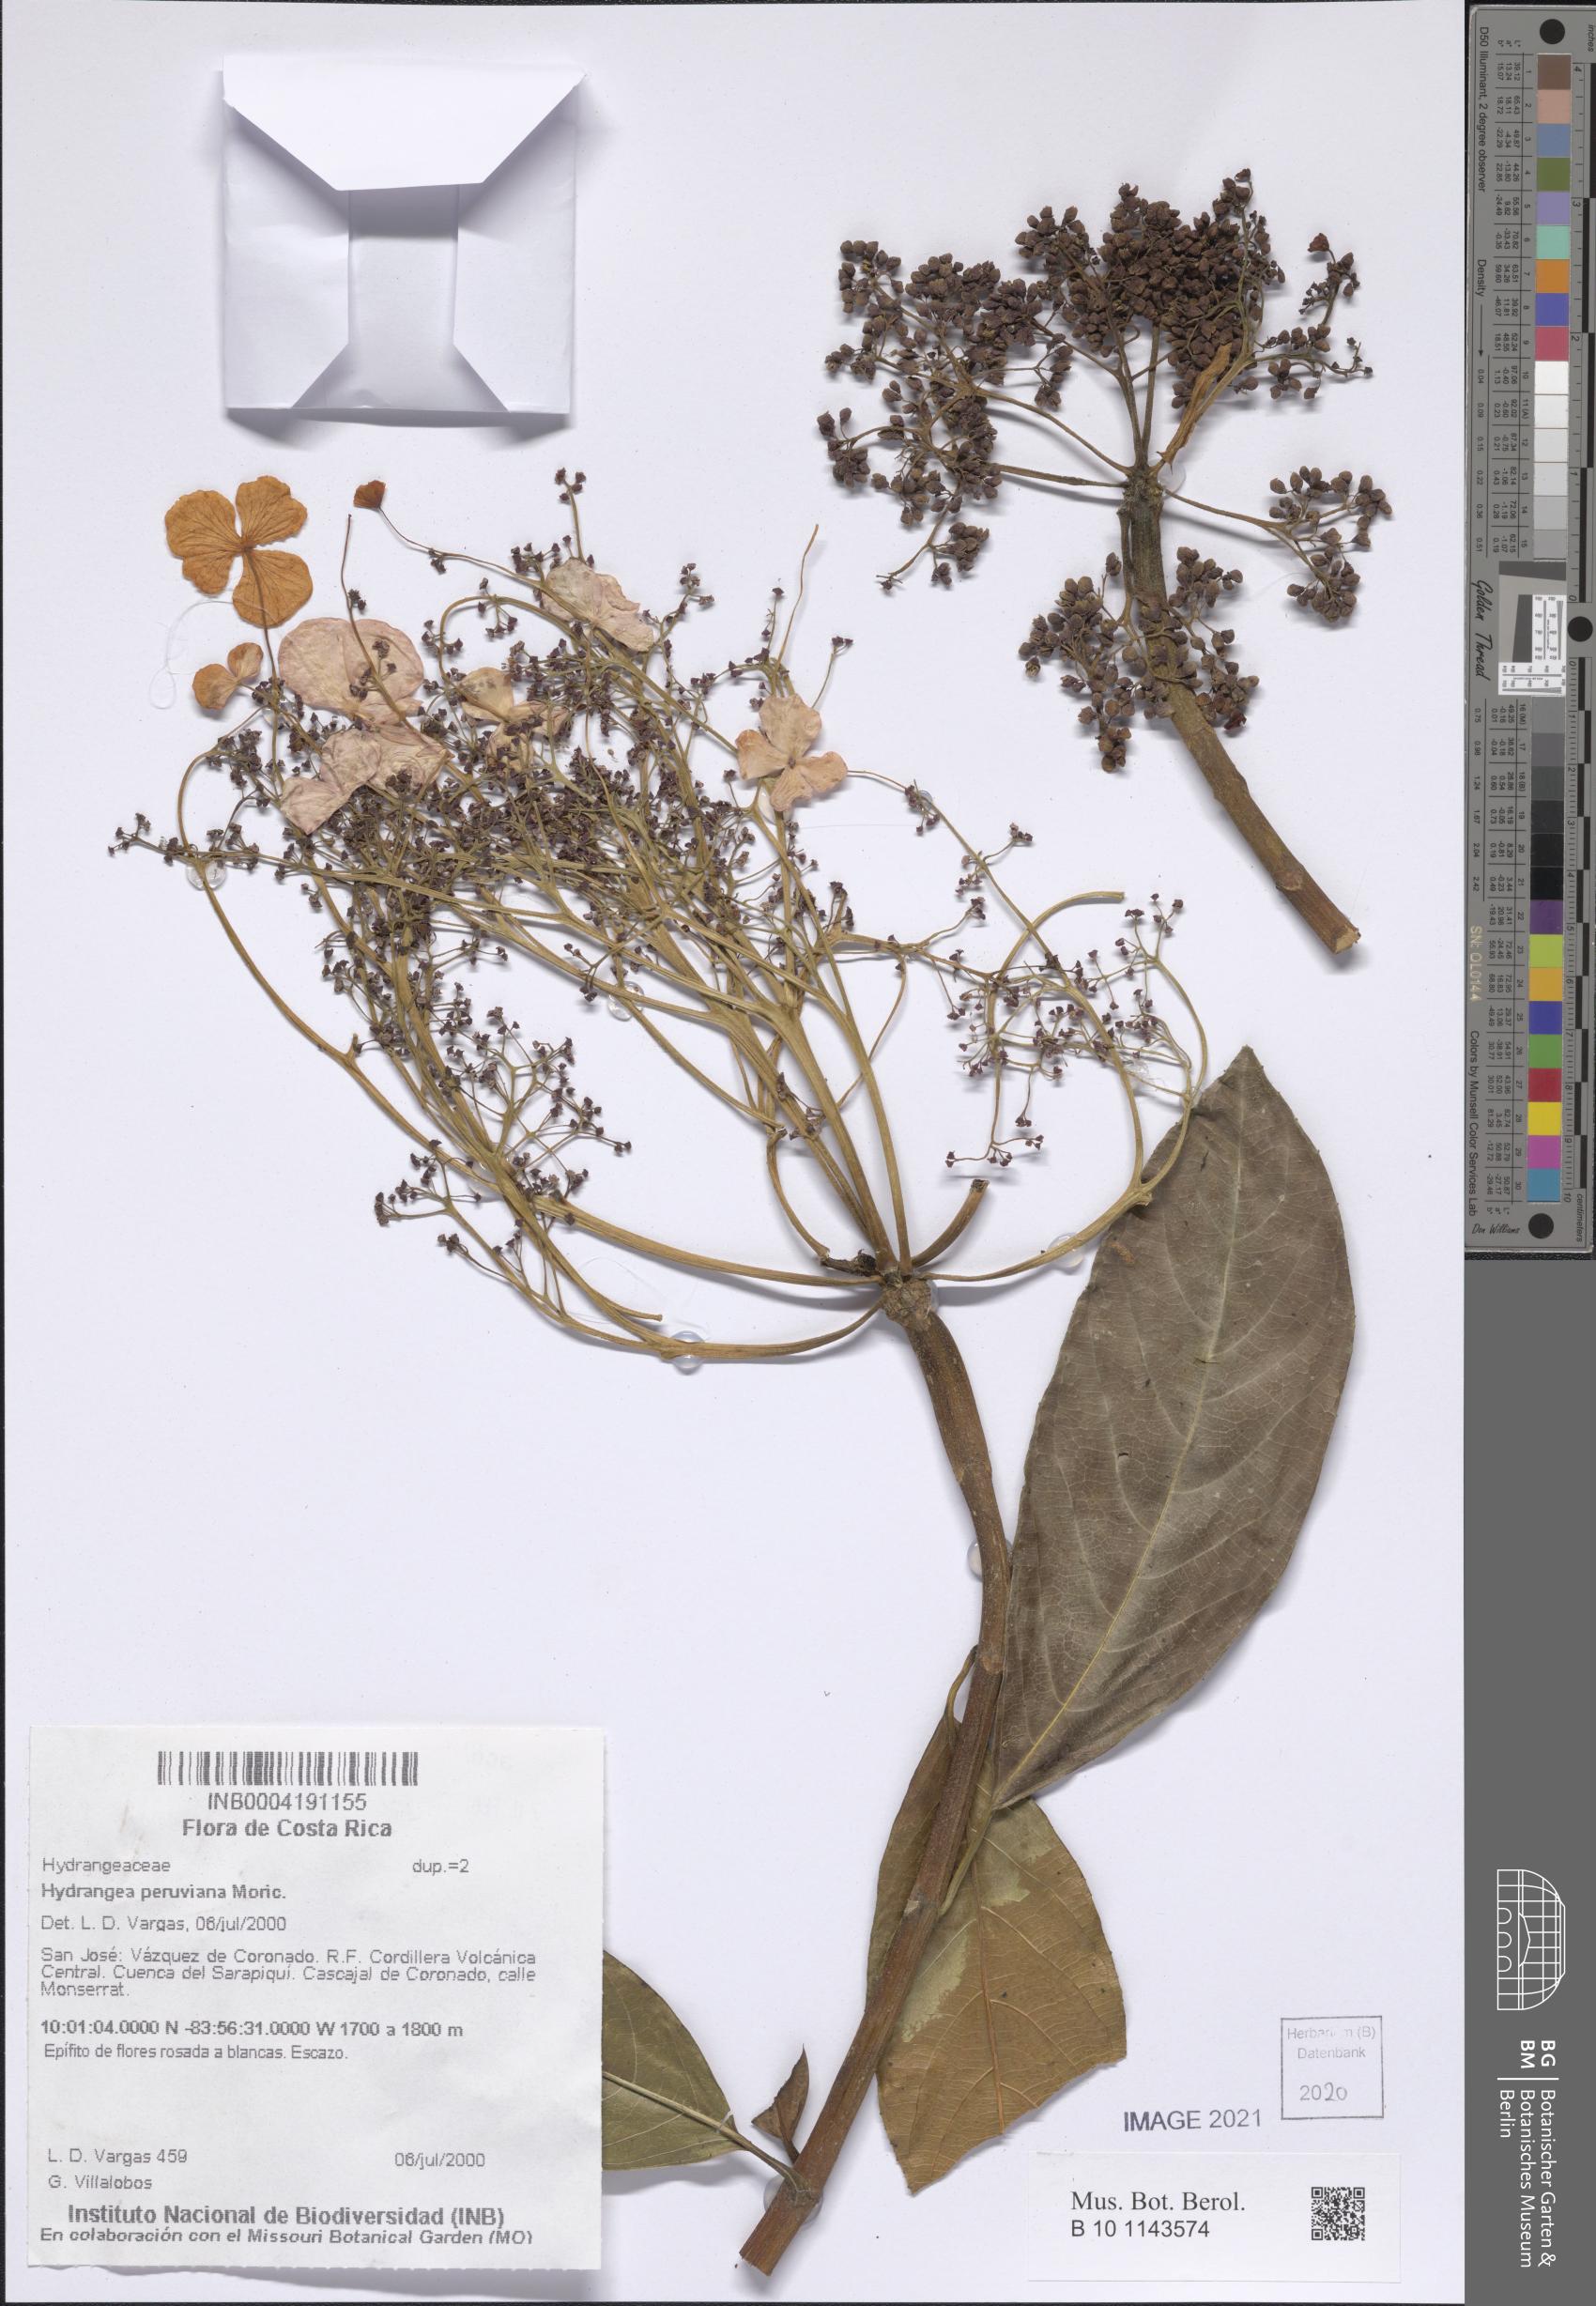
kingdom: Plantae
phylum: Tracheophyta
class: Magnoliopsida
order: Cornales
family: Hydrangeaceae
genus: Hydrangea
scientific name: Hydrangea peruviana
